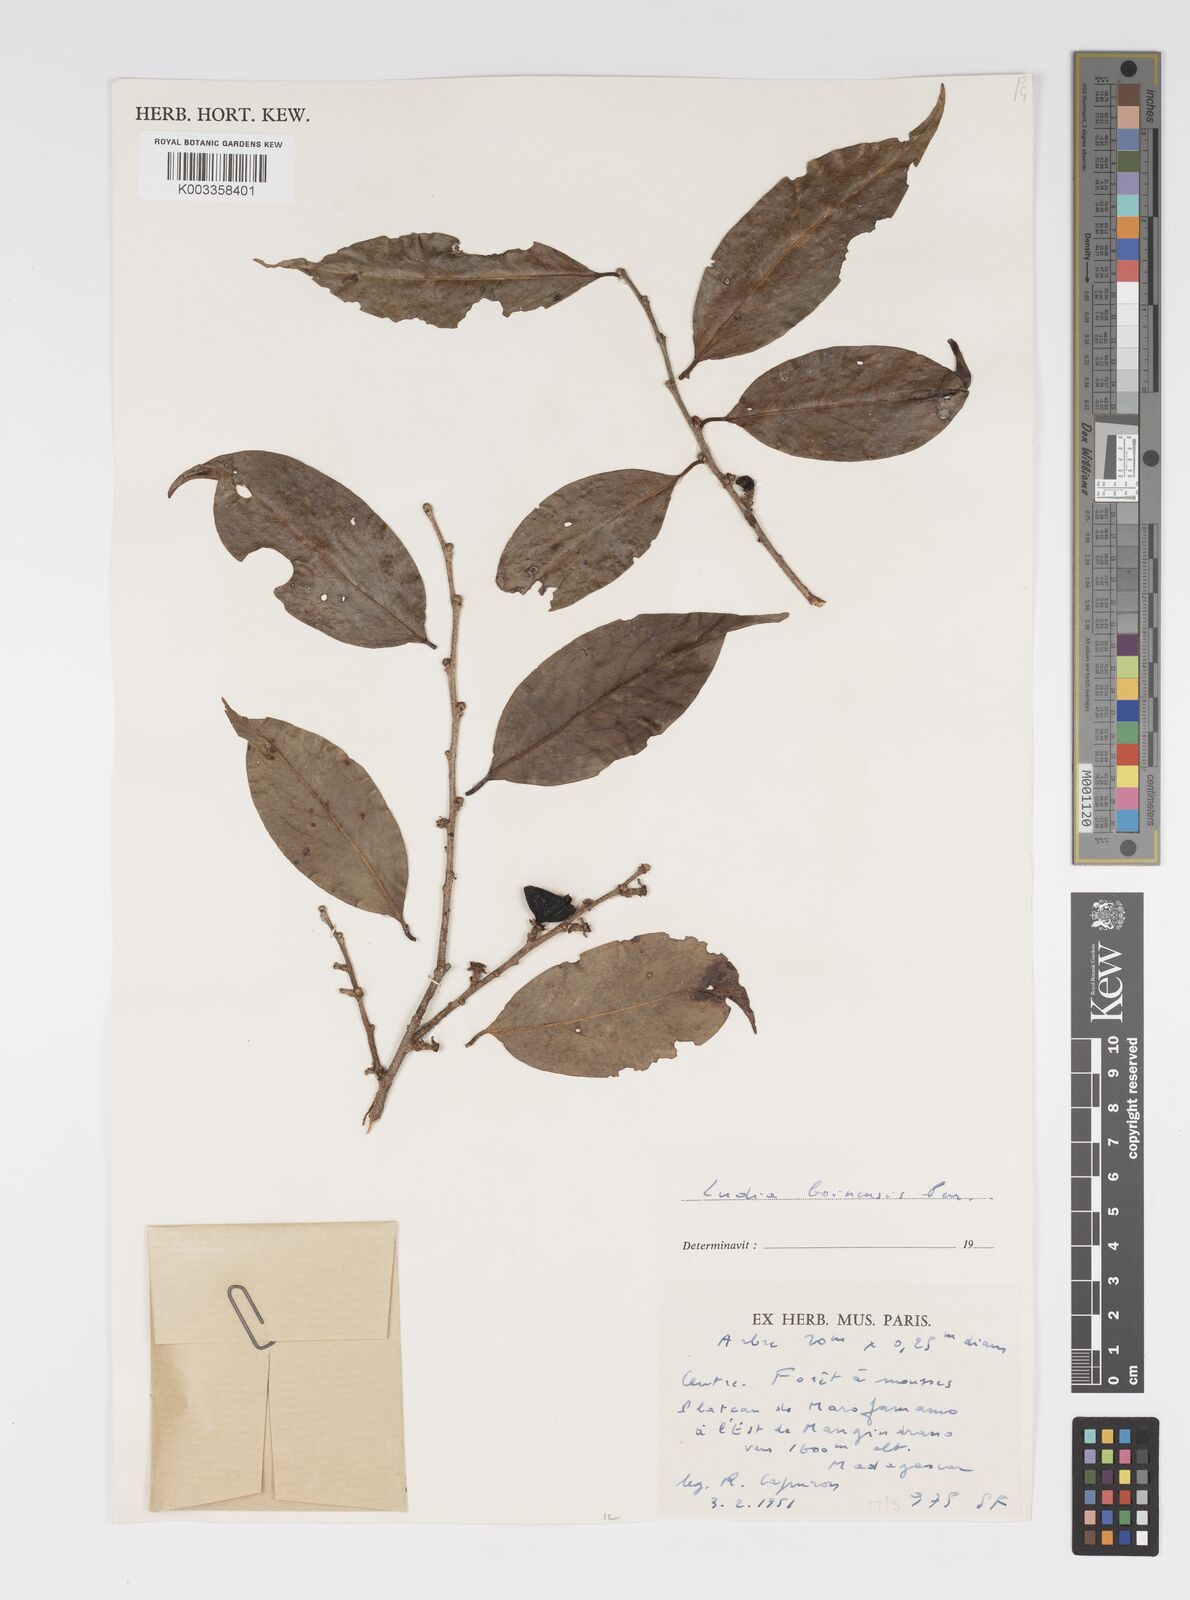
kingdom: Plantae
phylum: Tracheophyta
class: Magnoliopsida
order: Malpighiales
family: Salicaceae
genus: Ludia
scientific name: Ludia boinensis
